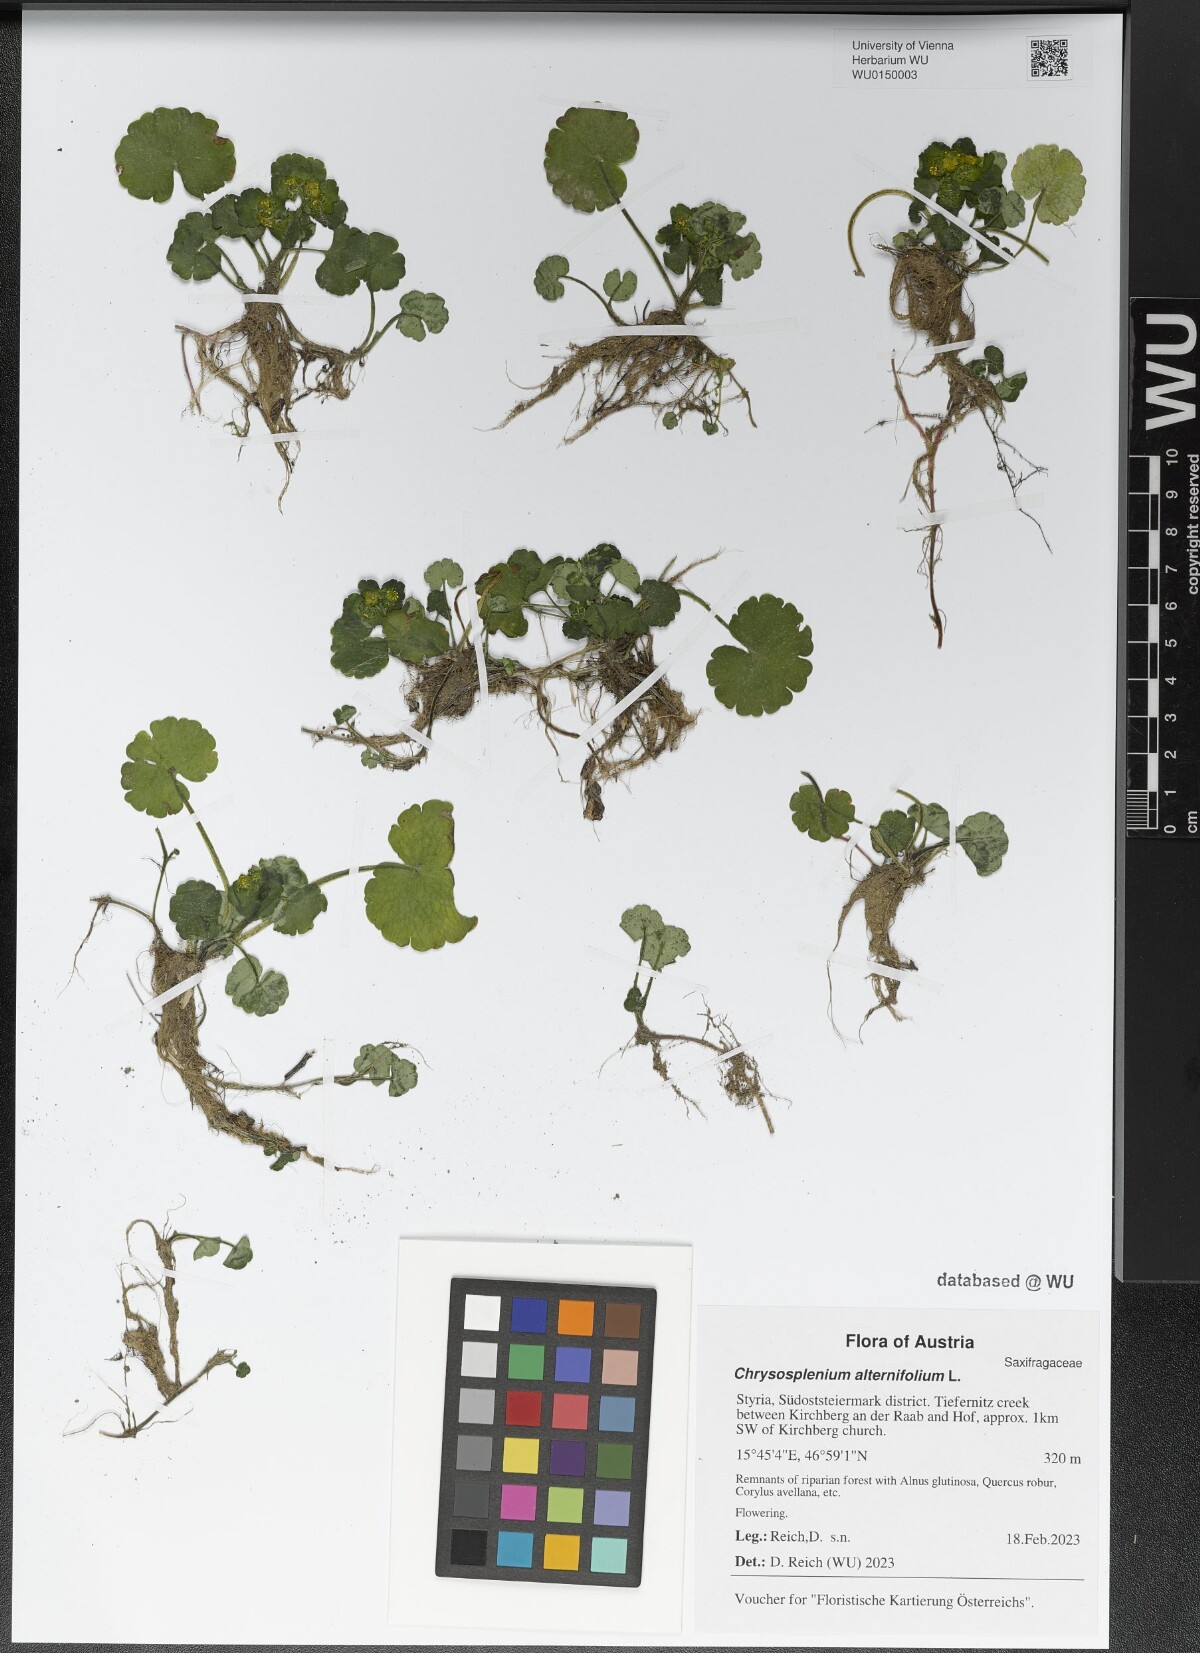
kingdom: Plantae
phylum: Tracheophyta
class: Magnoliopsida
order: Saxifragales
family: Saxifragaceae
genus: Chrysosplenium
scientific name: Chrysosplenium alternifolium
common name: Alternate-leaved golden-saxifrage
